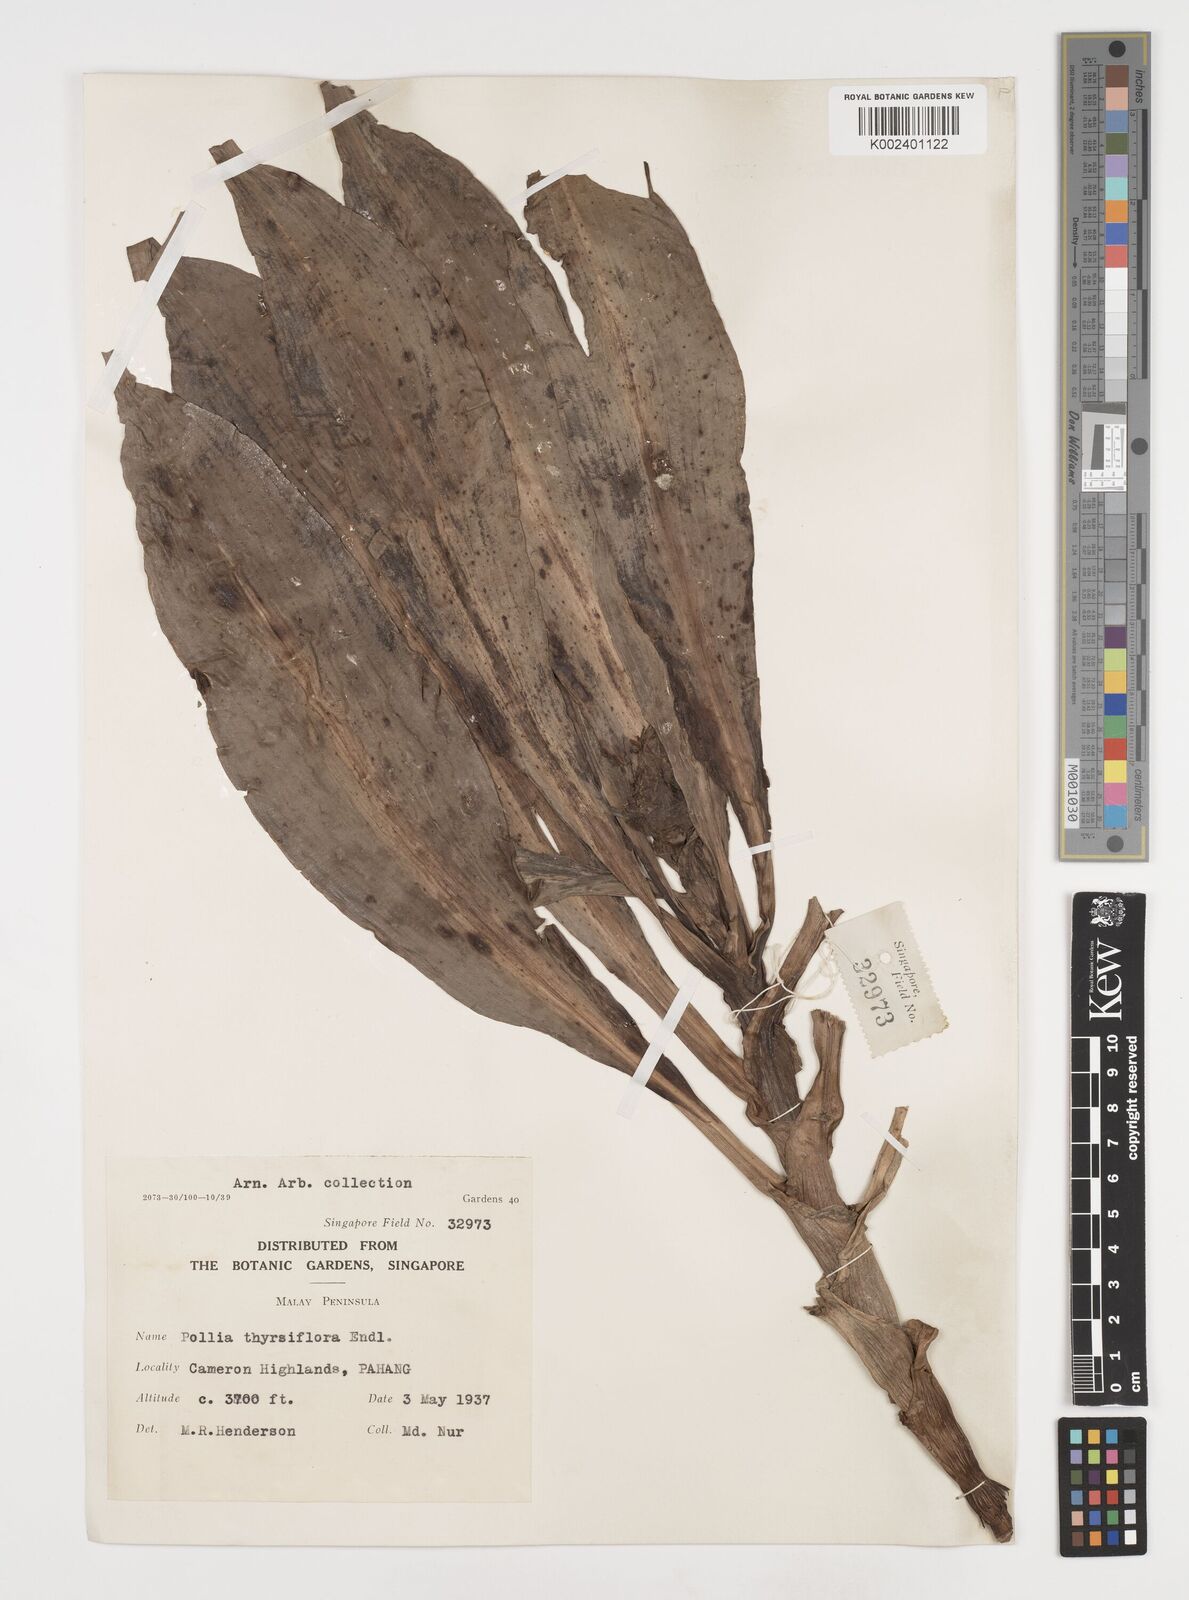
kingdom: Plantae
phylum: Tracheophyta
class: Liliopsida
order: Commelinales
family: Commelinaceae
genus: Pollia
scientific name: Pollia thyrsiflora
